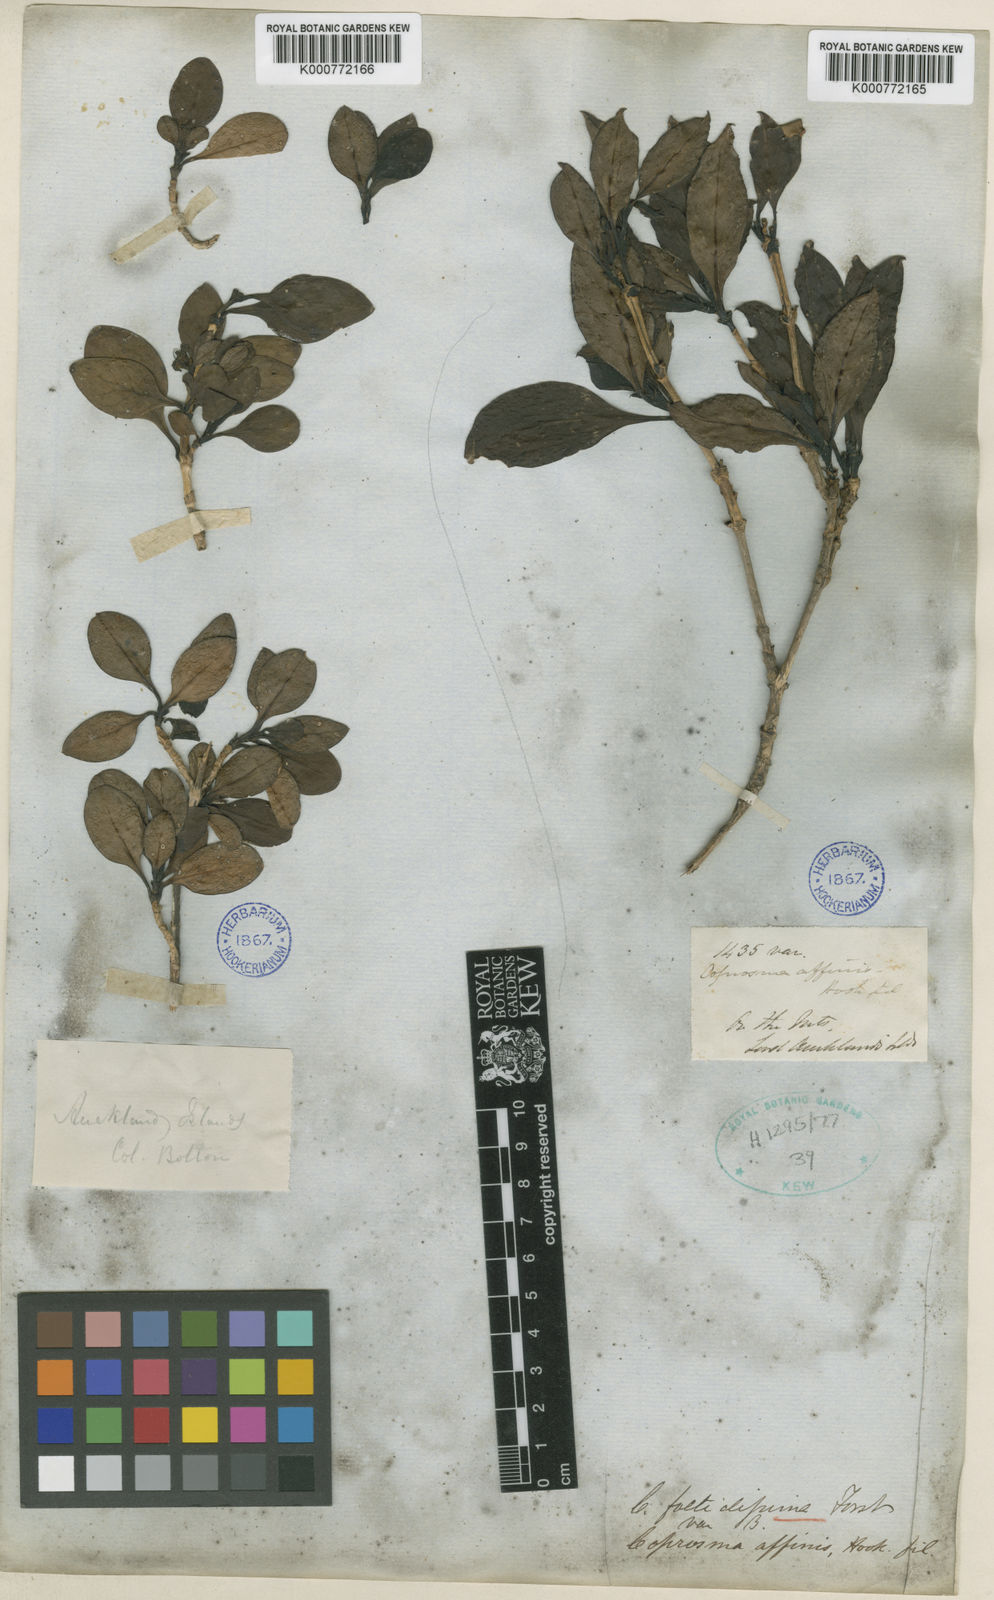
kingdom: Plantae
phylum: Tracheophyta
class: Magnoliopsida
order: Gentianales
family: Rubiaceae
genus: Coprosma
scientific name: Coprosma foetidissima
